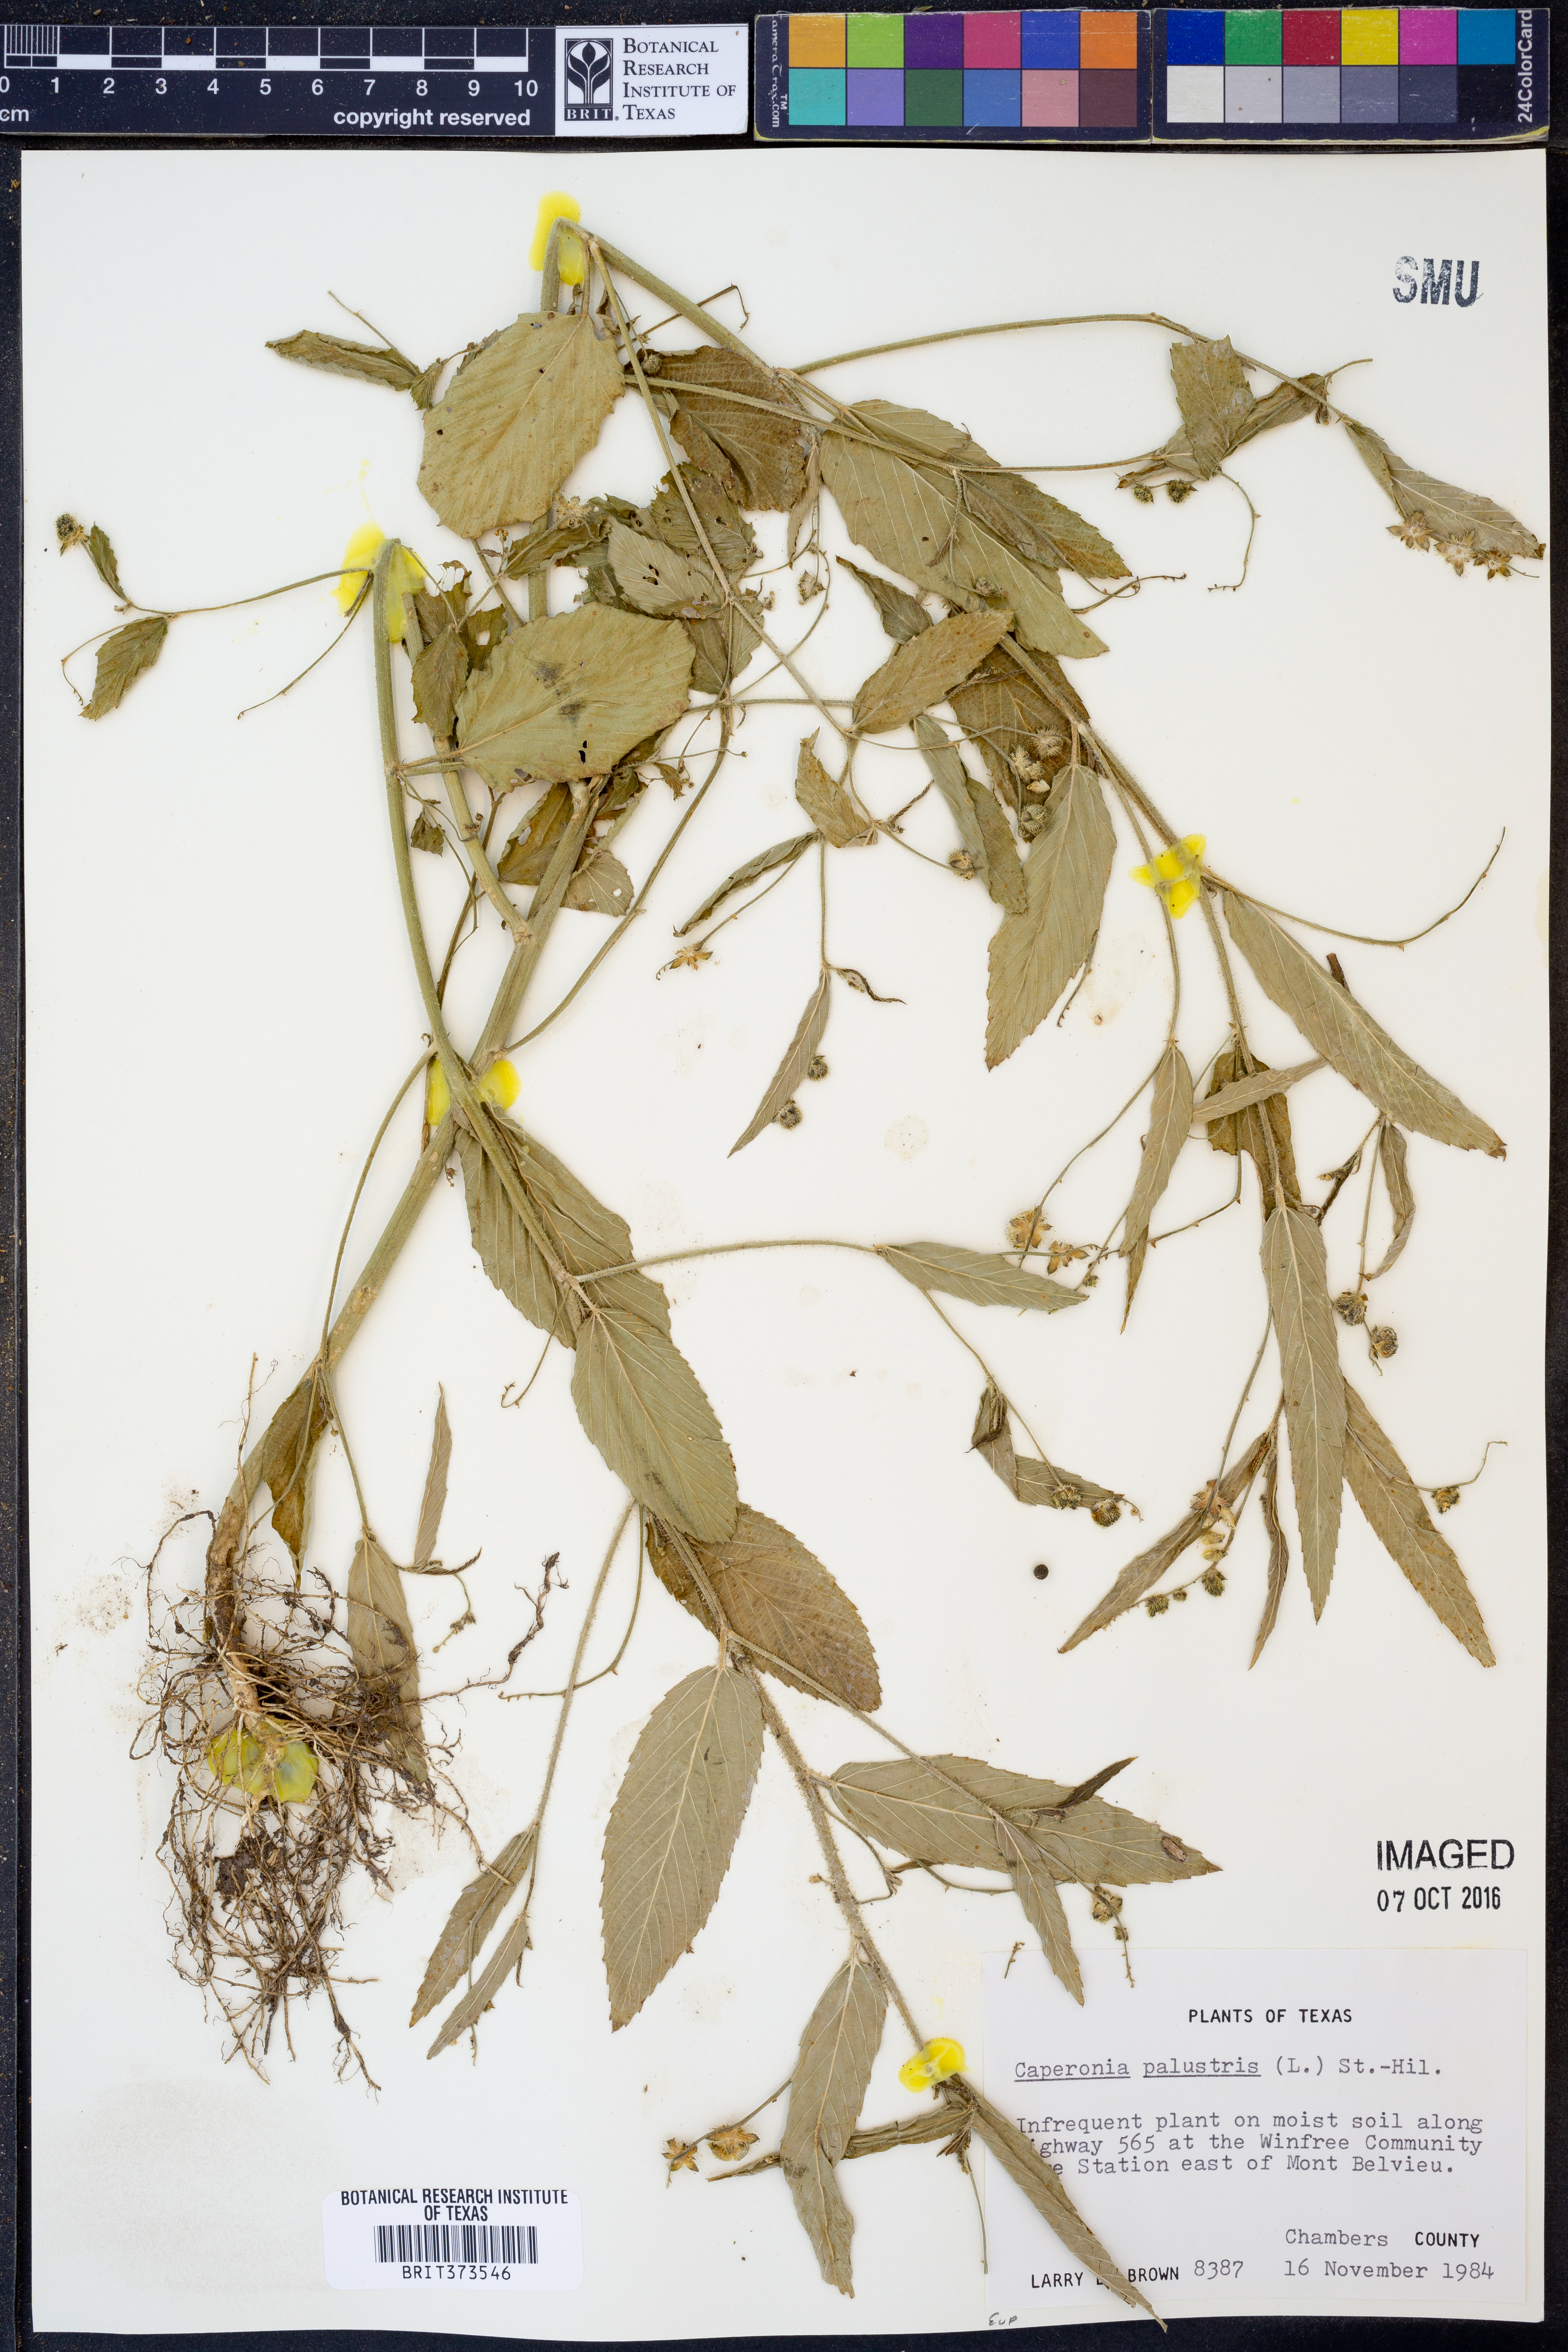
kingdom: Plantae
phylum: Tracheophyta
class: Magnoliopsida
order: Malpighiales
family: Euphorbiaceae
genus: Caperonia
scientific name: Caperonia palustris
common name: Sacatrapo
